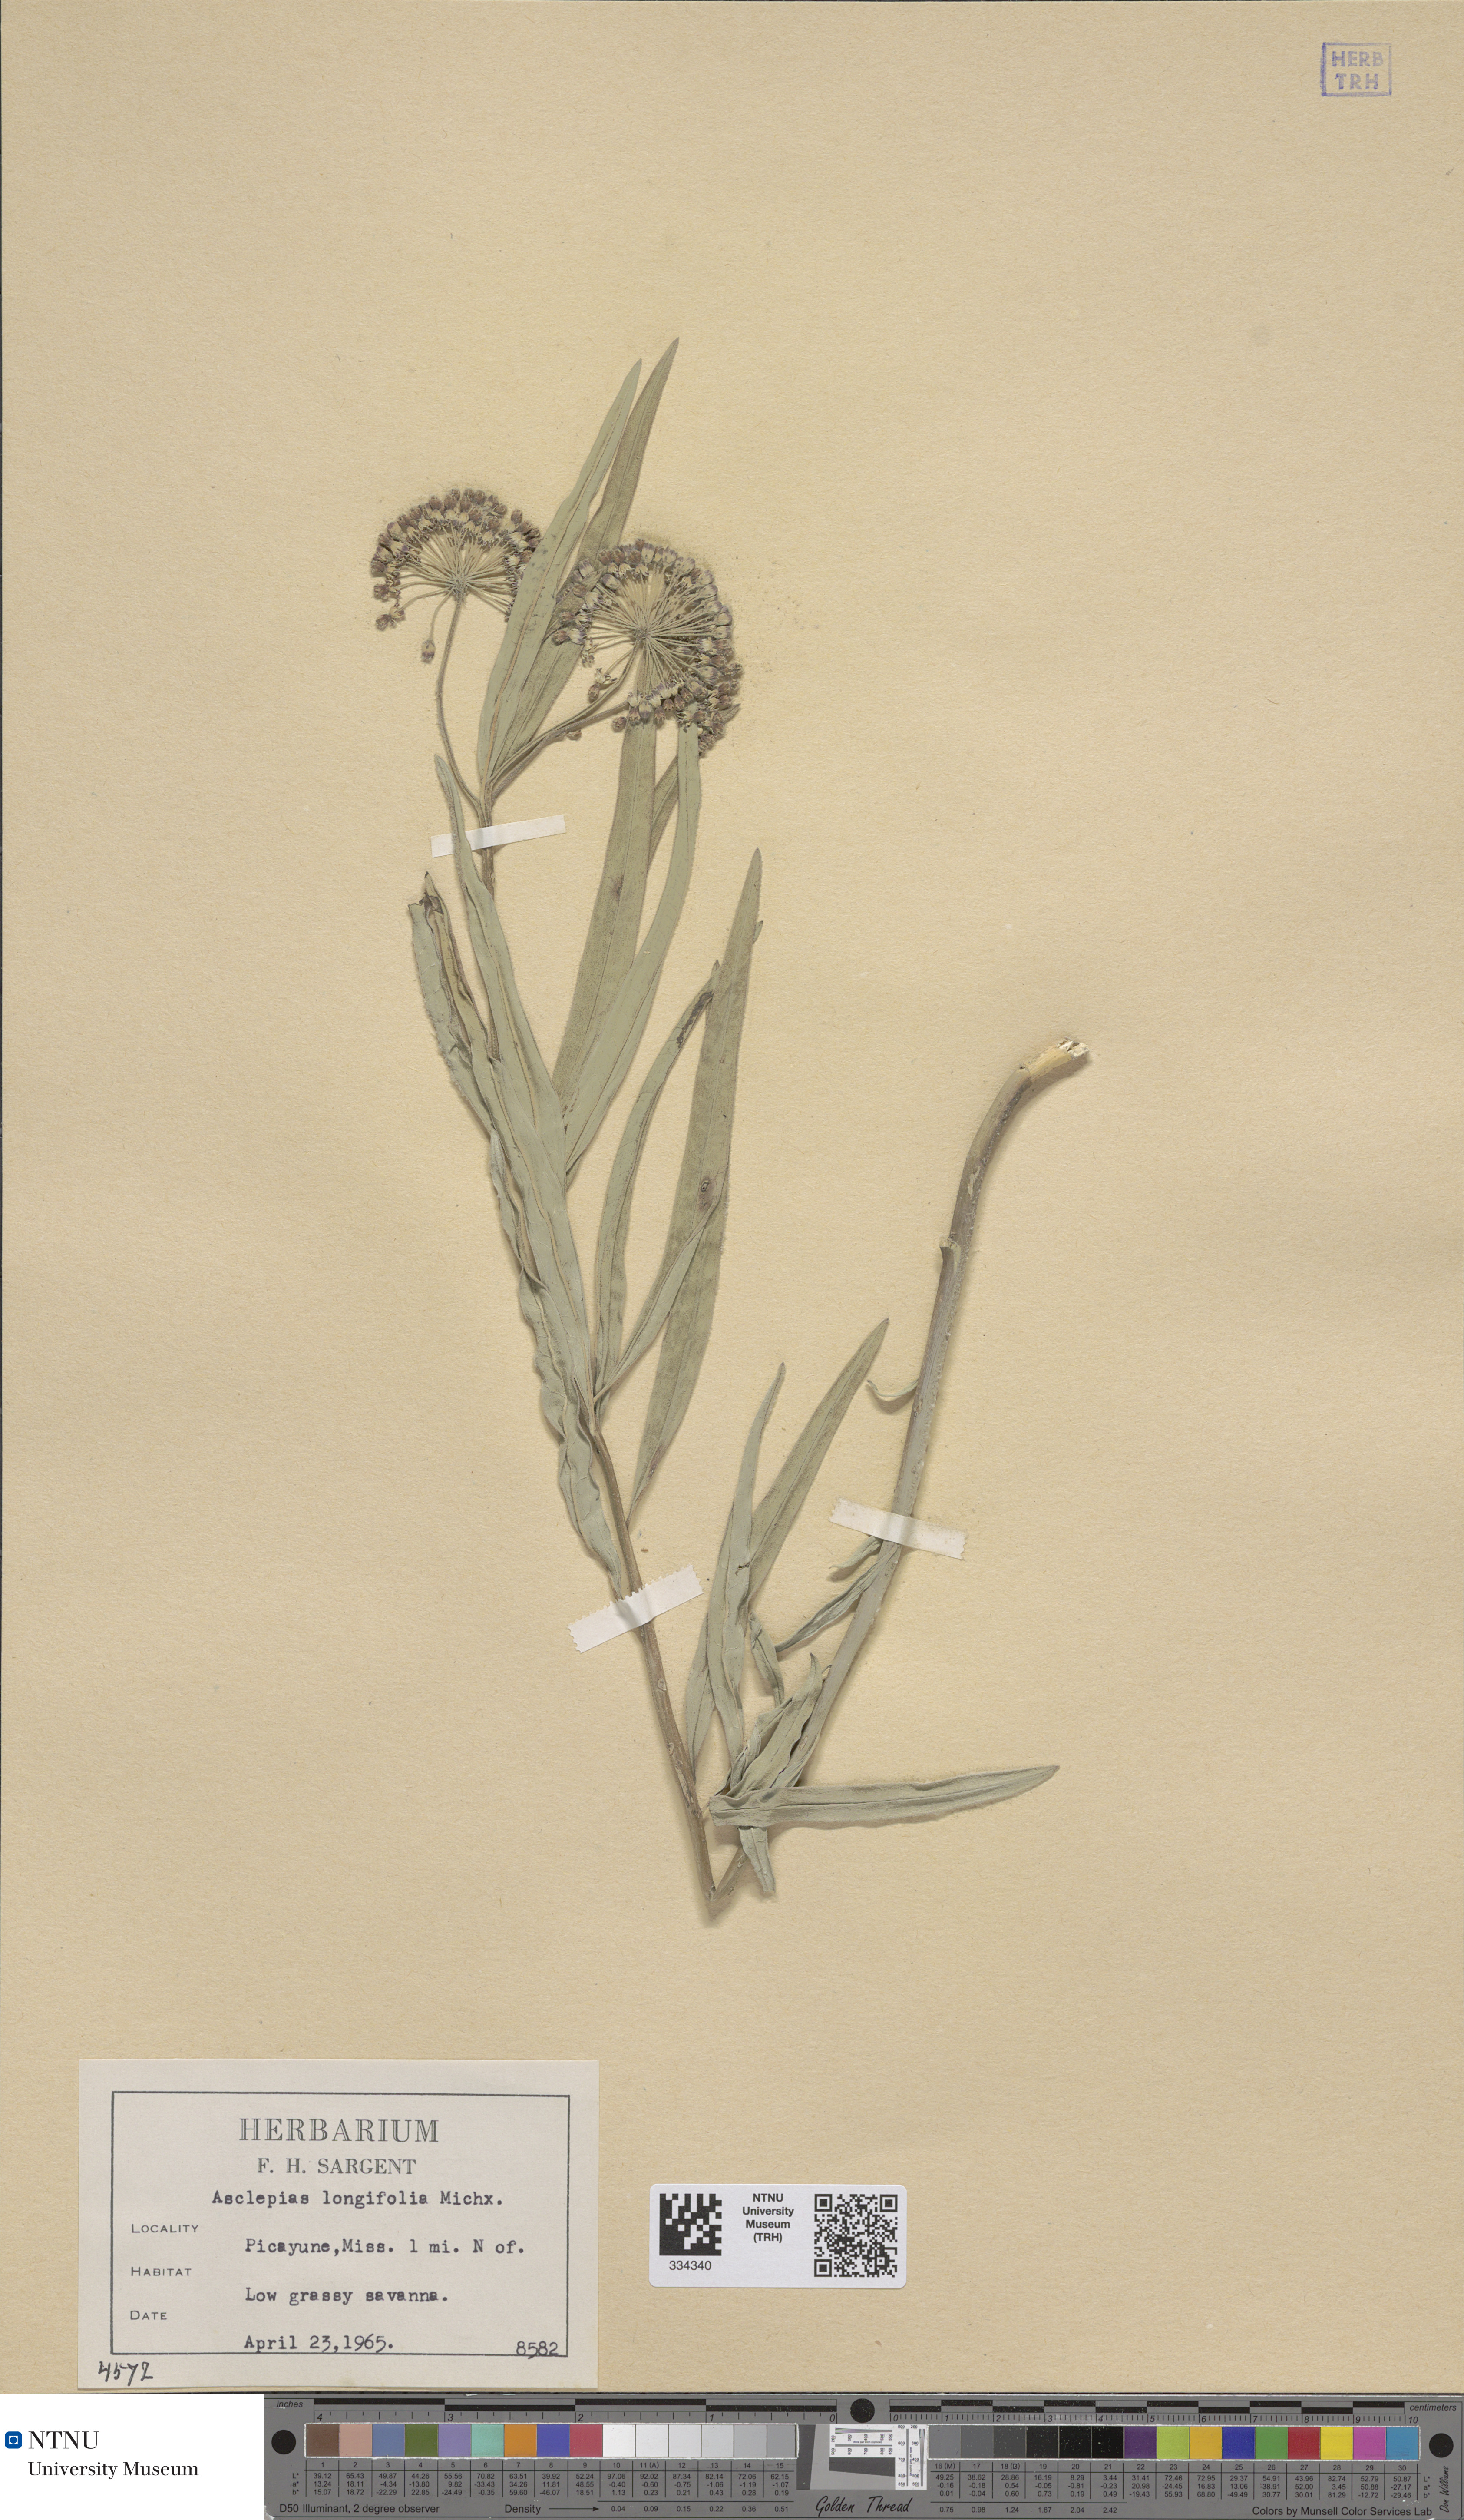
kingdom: Plantae
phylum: Tracheophyta
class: Magnoliopsida
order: Gentianales
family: Apocynaceae
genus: Asclepias
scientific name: Asclepias longifolia
